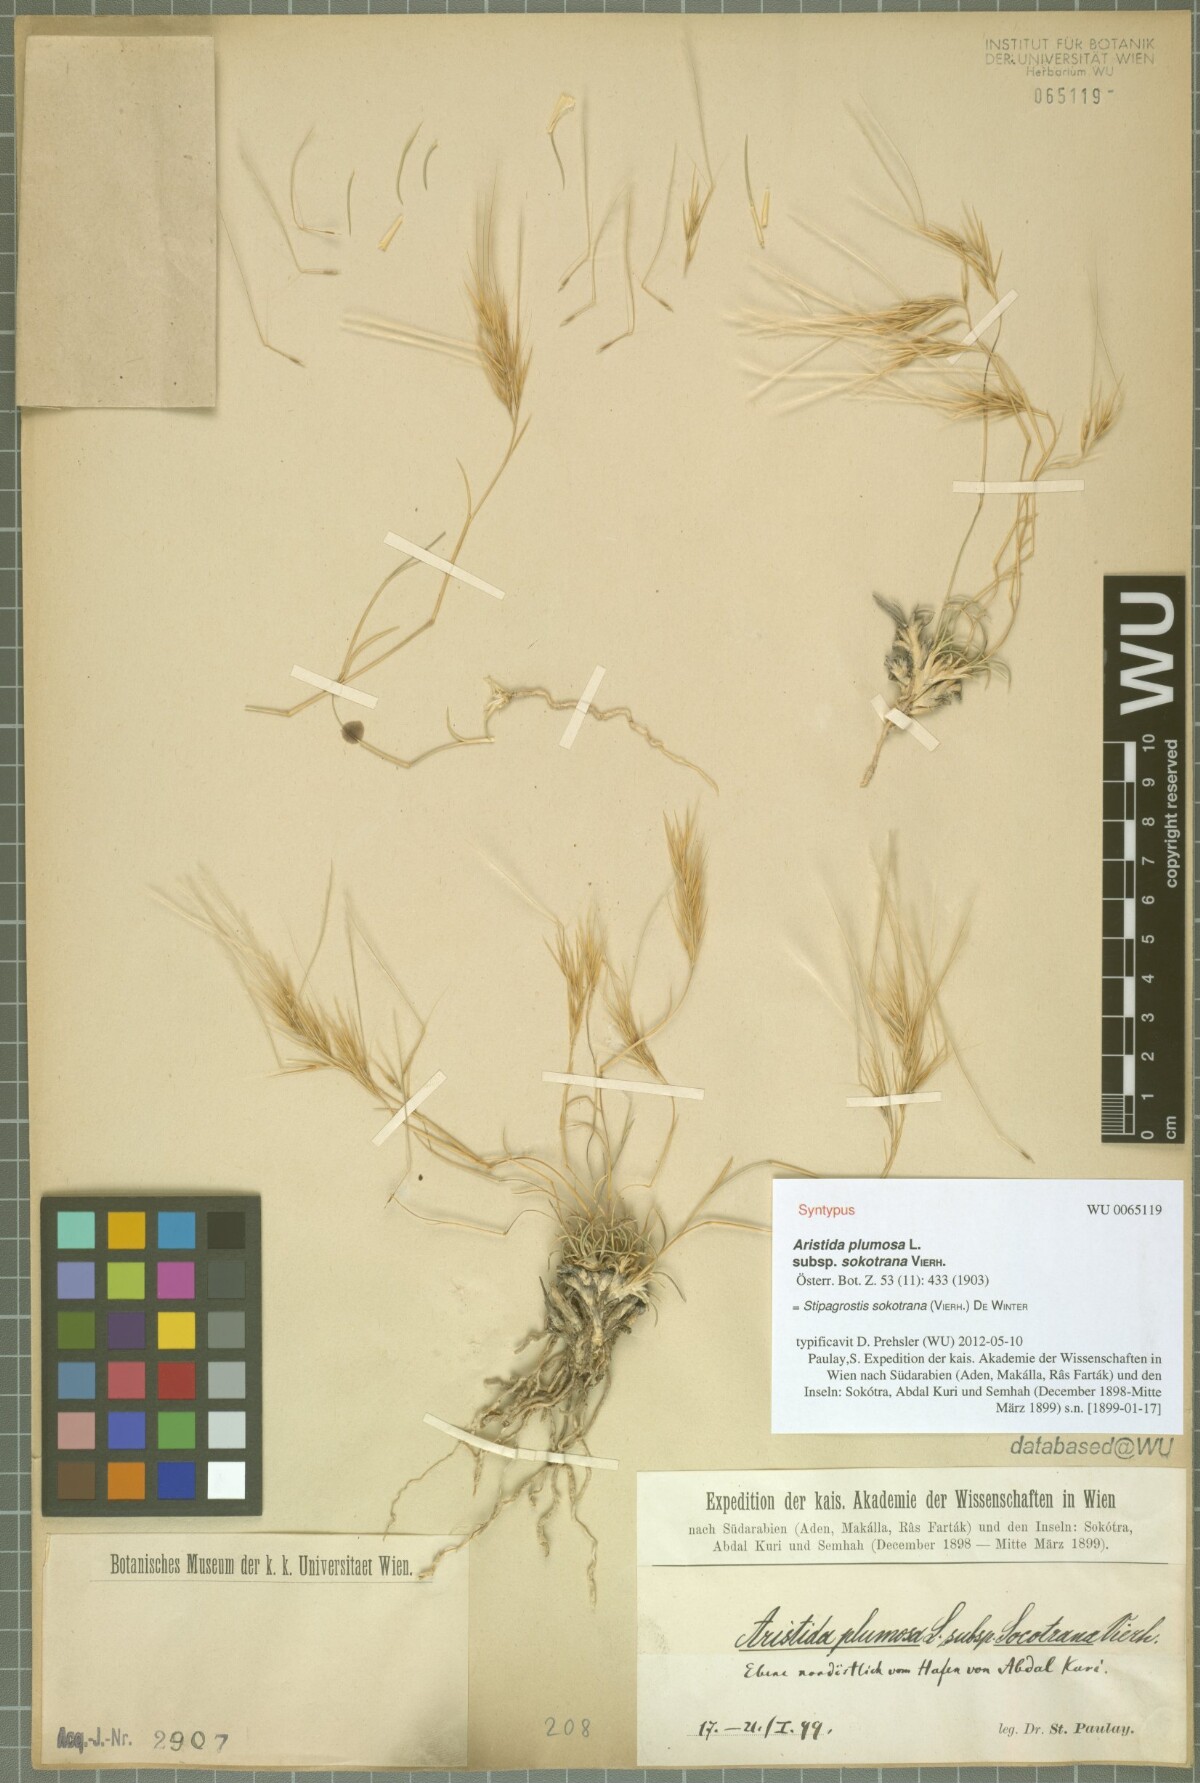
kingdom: Plantae
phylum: Tracheophyta
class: Liliopsida
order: Poales
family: Poaceae
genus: Stipagrostis
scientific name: Stipagrostis sokotrana
